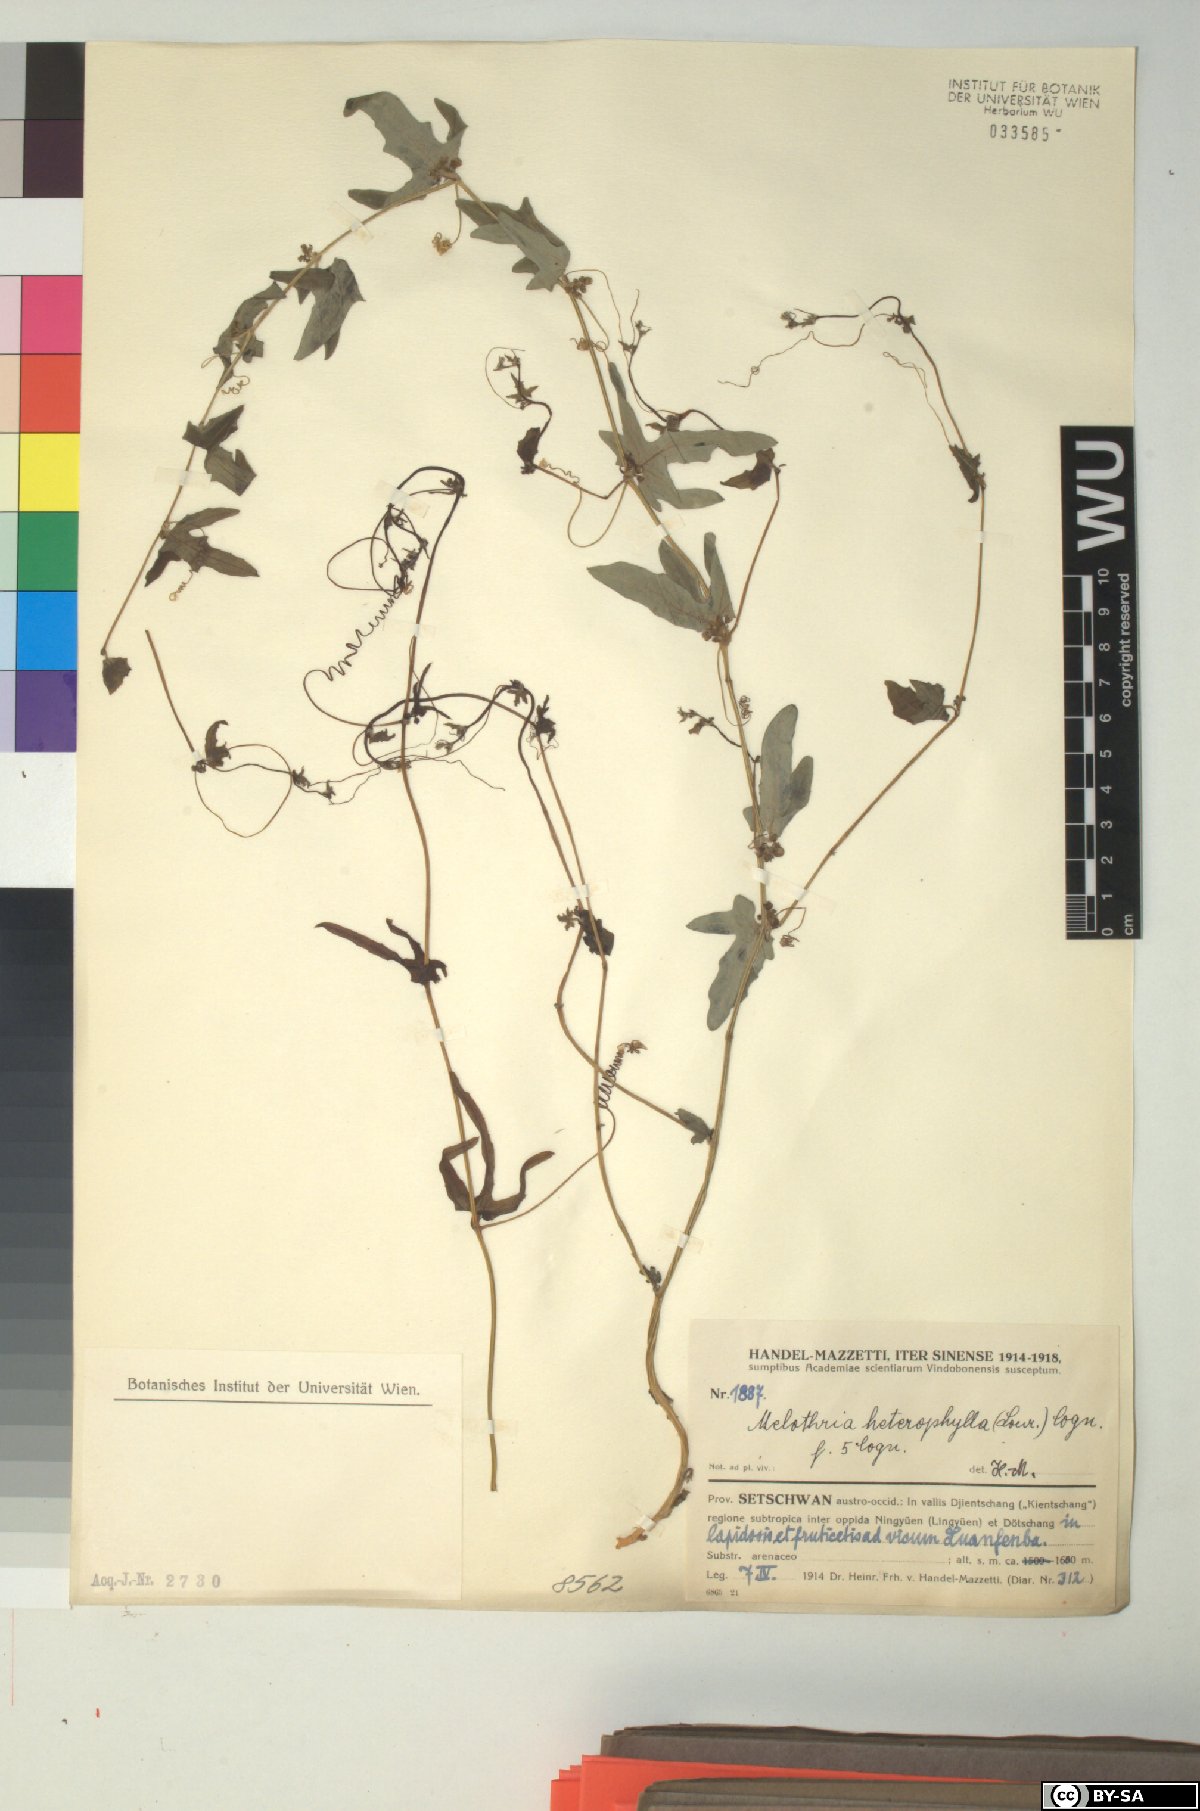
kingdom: Plantae
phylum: Tracheophyta
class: Magnoliopsida
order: Cucurbitales
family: Cucurbitaceae
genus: Melothria
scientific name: Melothria trilobata
